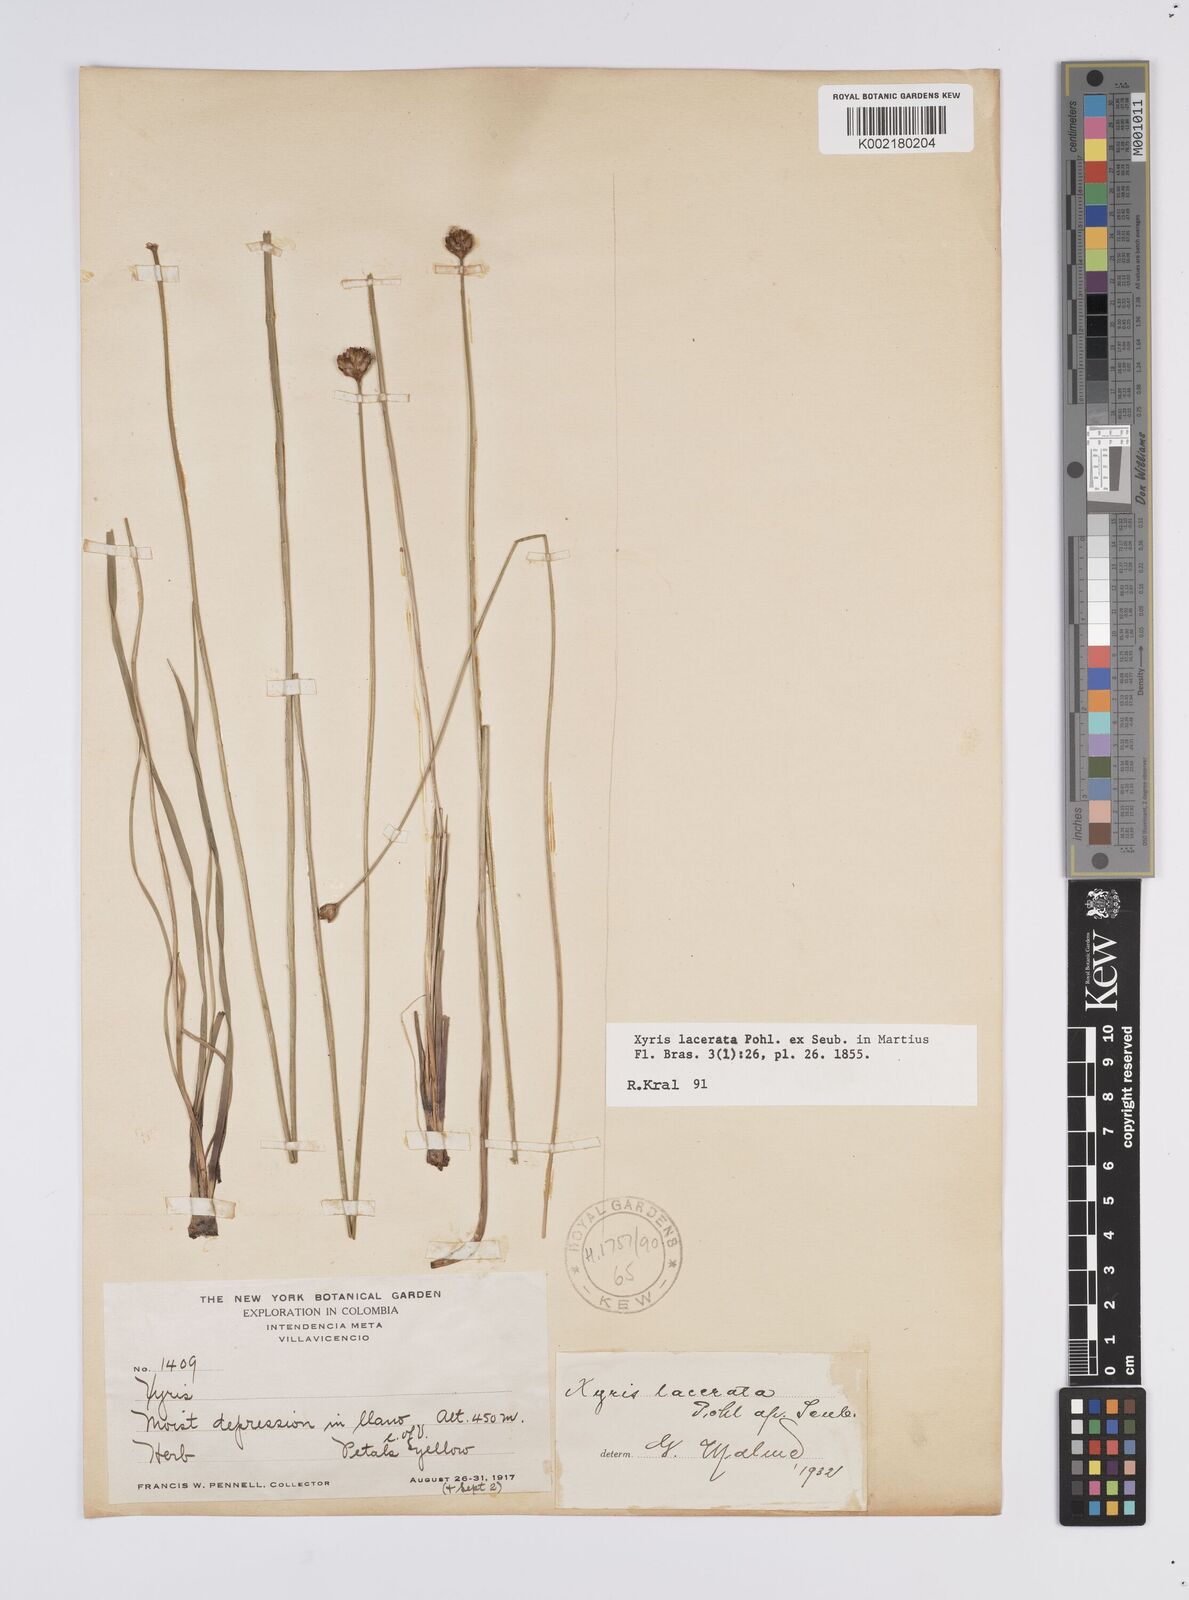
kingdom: Plantae
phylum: Tracheophyta
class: Liliopsida
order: Poales
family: Xyridaceae
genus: Xyris
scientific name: Xyris lacerata
